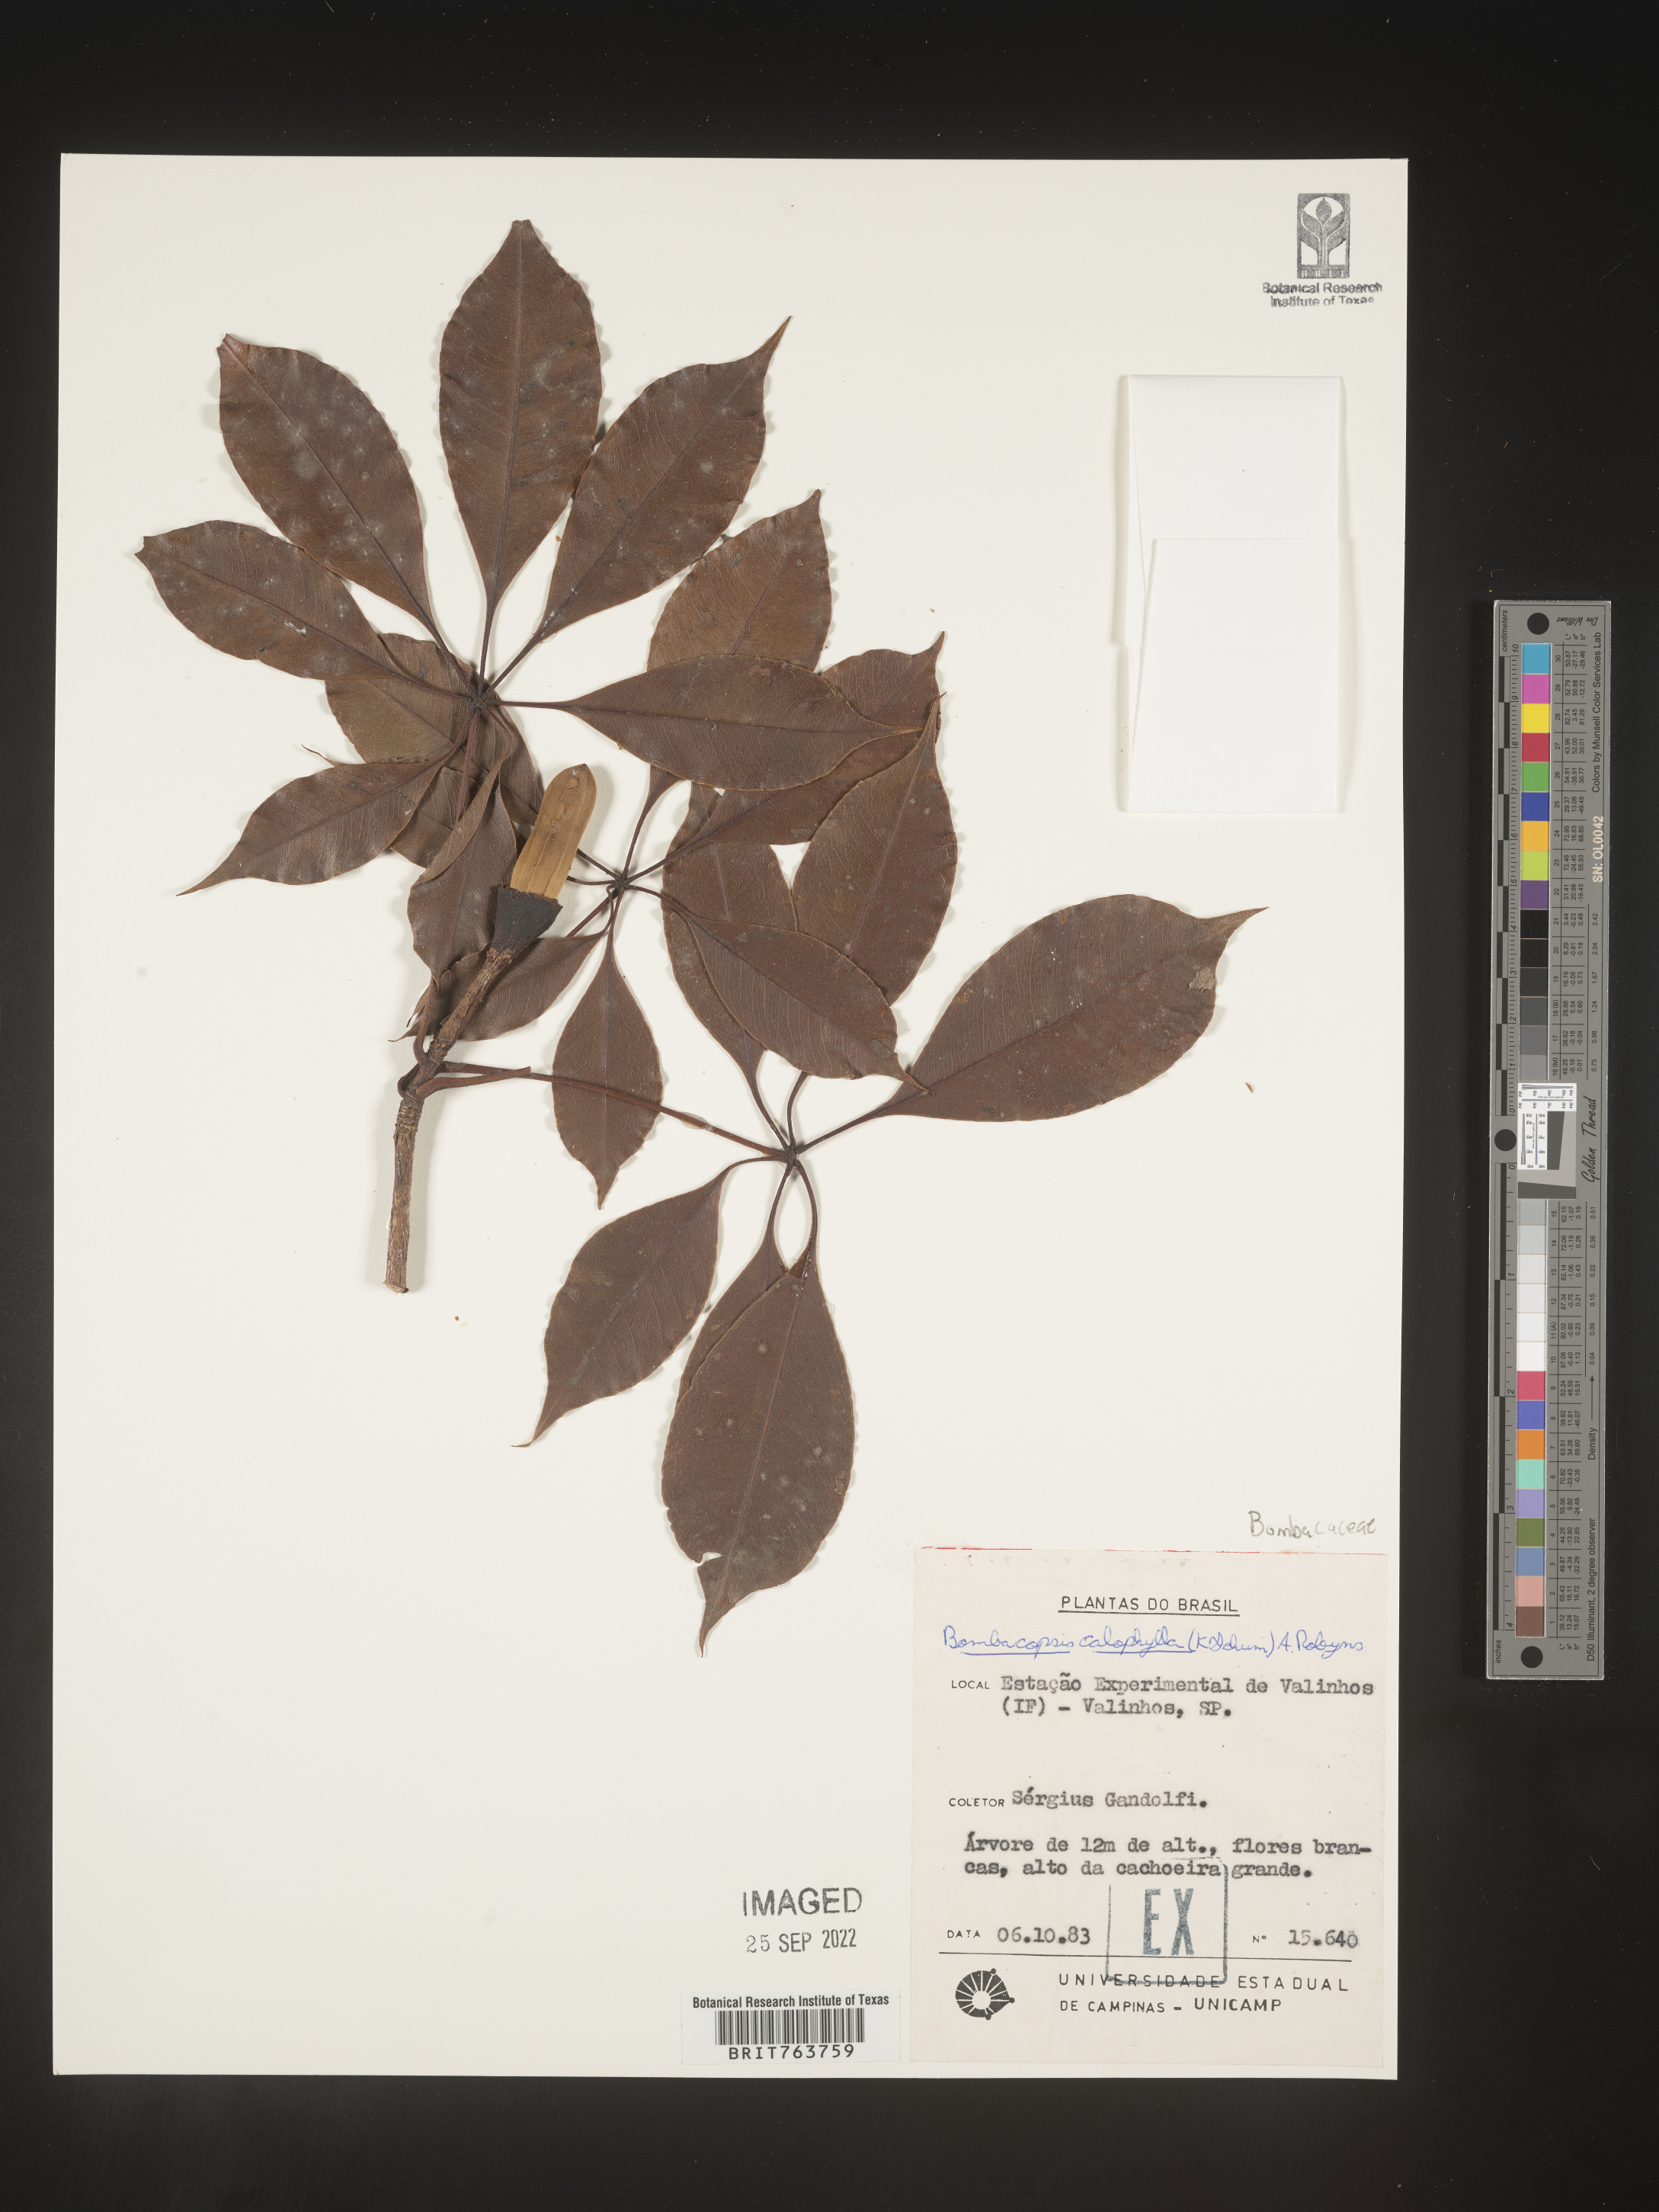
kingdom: Plantae
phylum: Tracheophyta
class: Magnoliopsida
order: Malvales
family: Malvaceae
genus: Pachira
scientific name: Pachira
